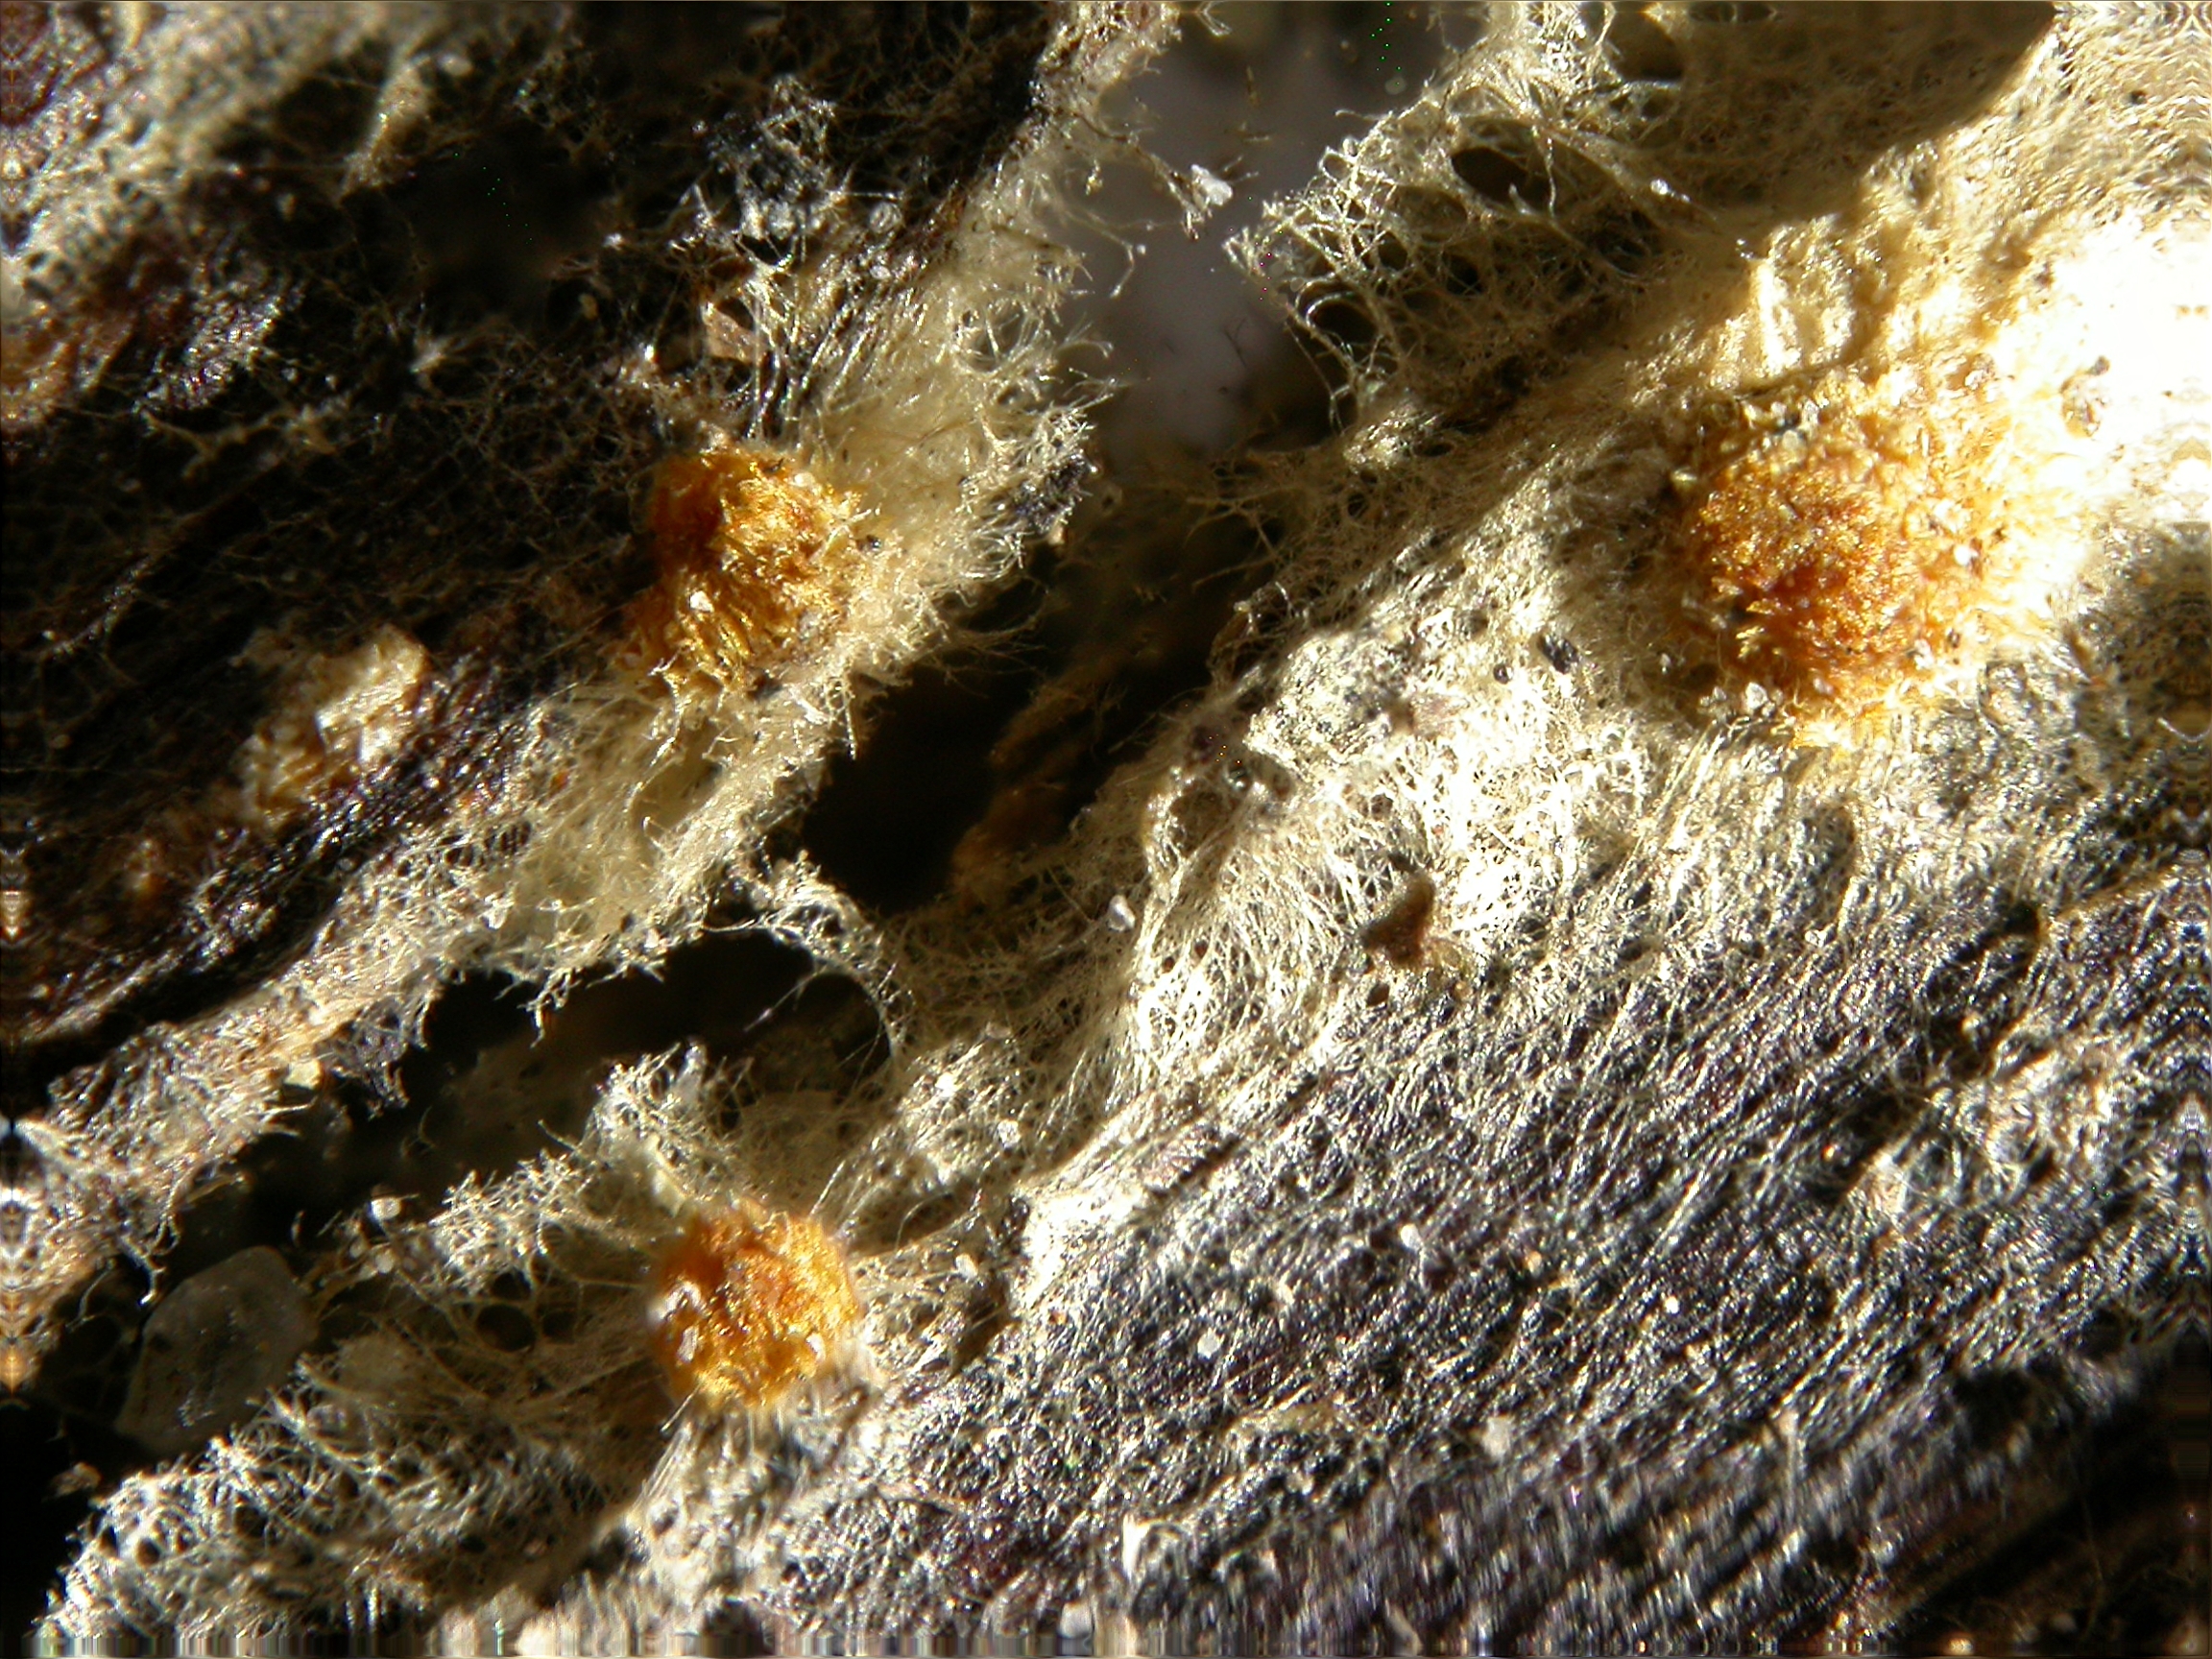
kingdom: Fungi
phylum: Ascomycota
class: Leotiomycetes
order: Helotiales
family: Arachnopezizaceae
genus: Arachnopeziza
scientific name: Arachnopeziza aurelia
